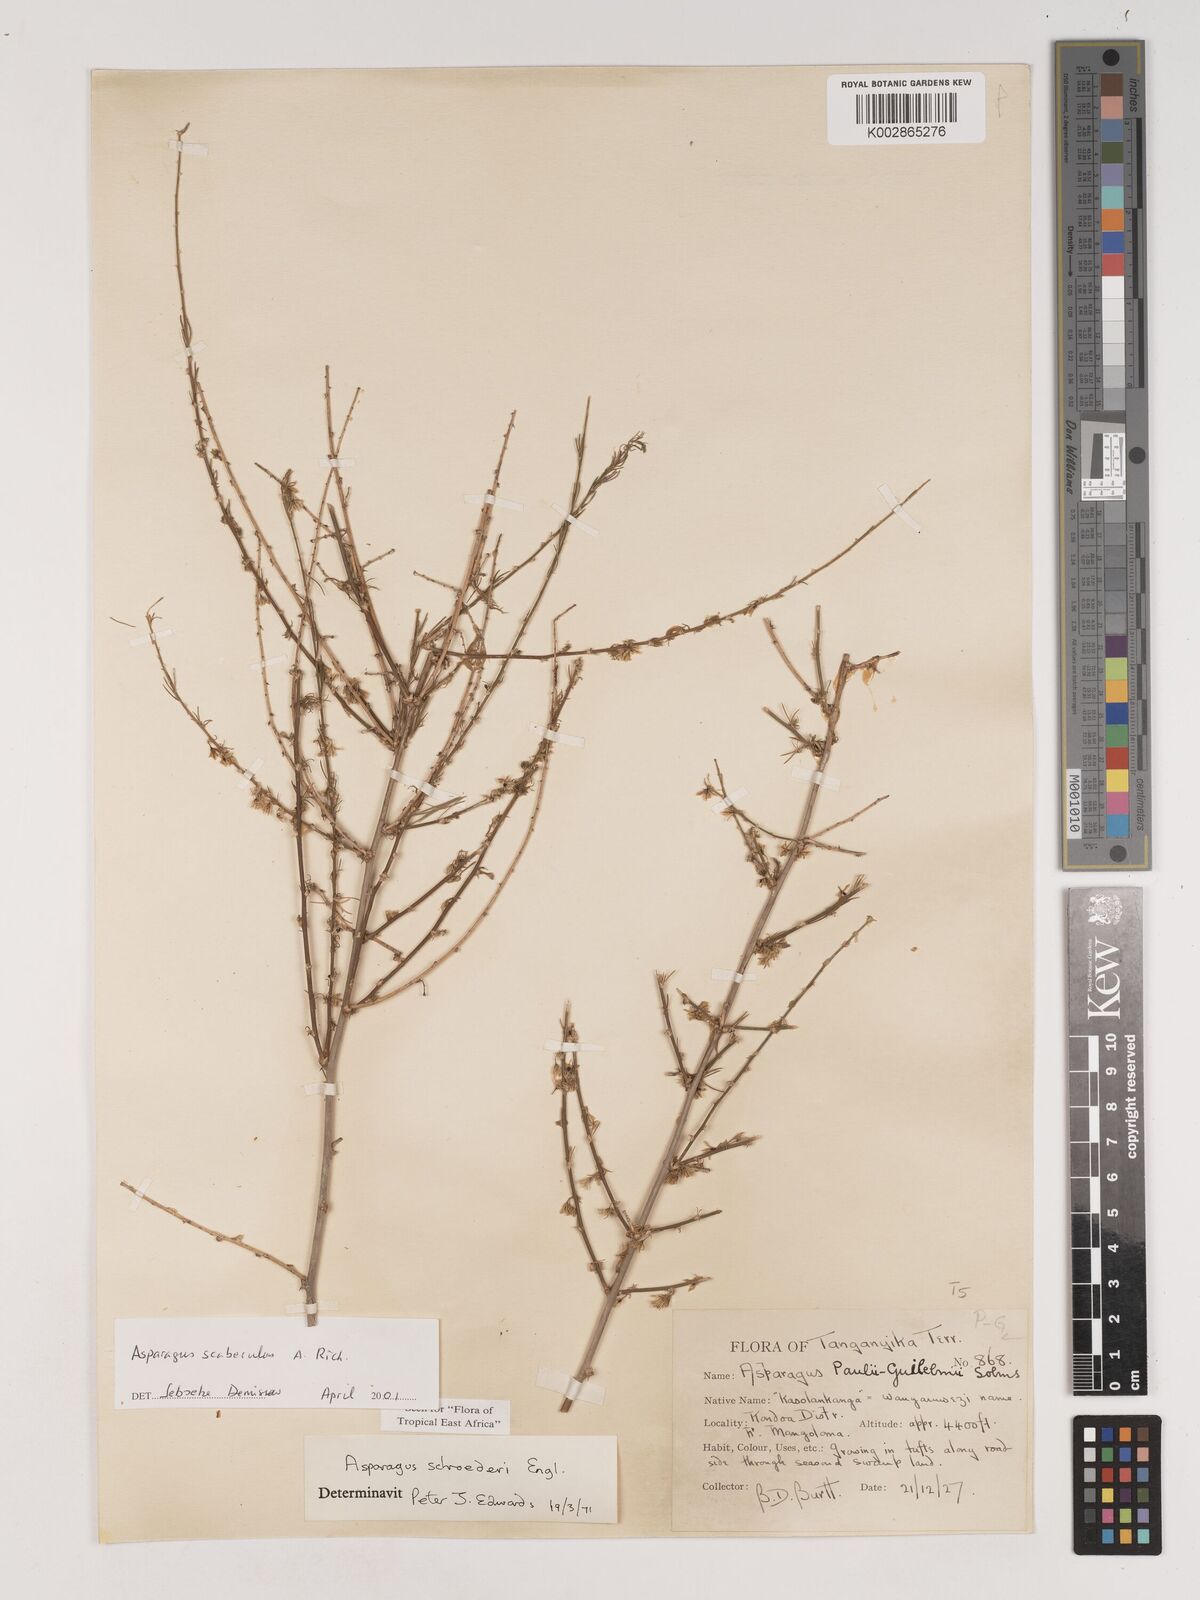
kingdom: Plantae
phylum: Tracheophyta
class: Liliopsida
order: Asparagales
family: Asparagaceae
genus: Asparagus
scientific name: Asparagus scaberulus
